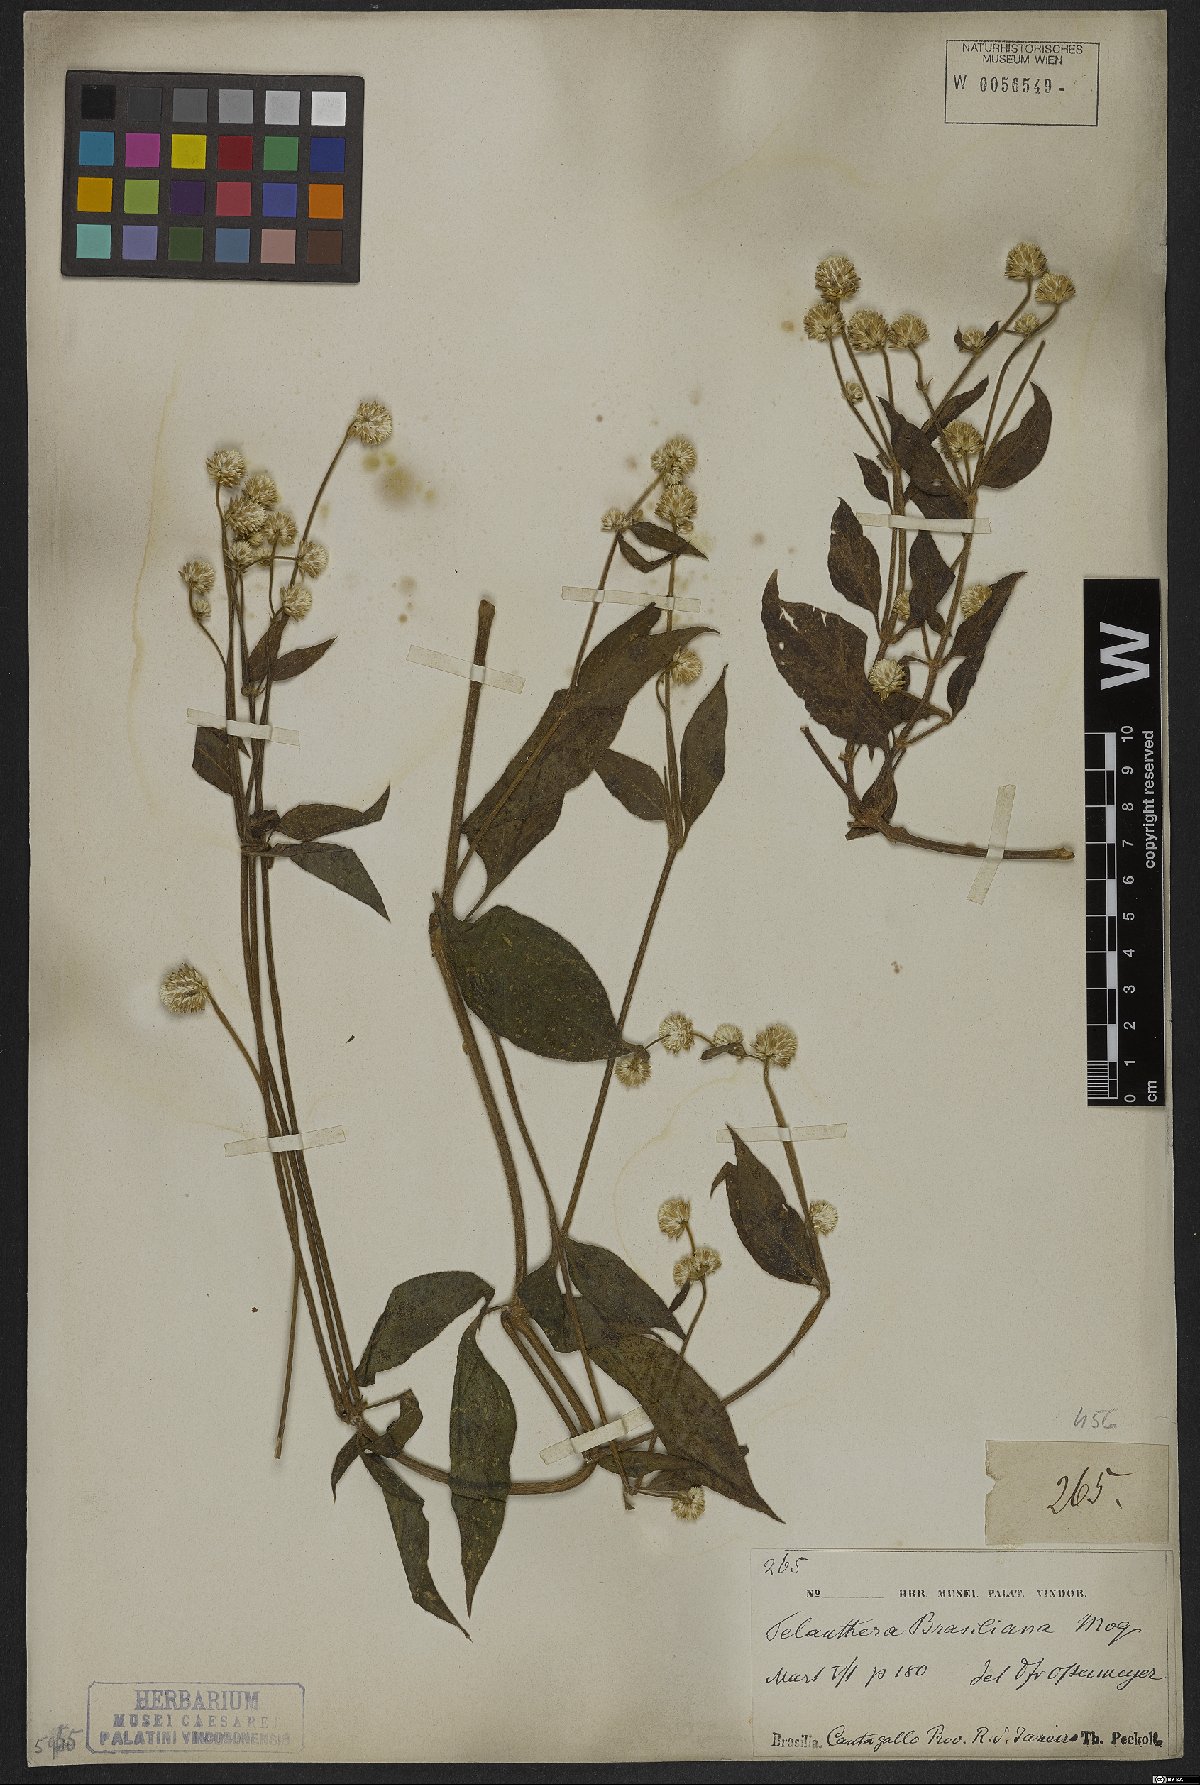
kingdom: Plantae
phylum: Tracheophyta
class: Magnoliopsida
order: Caryophyllales
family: Amaranthaceae
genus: Alternanthera
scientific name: Alternanthera brasiliana
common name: Brazilian joyweed
